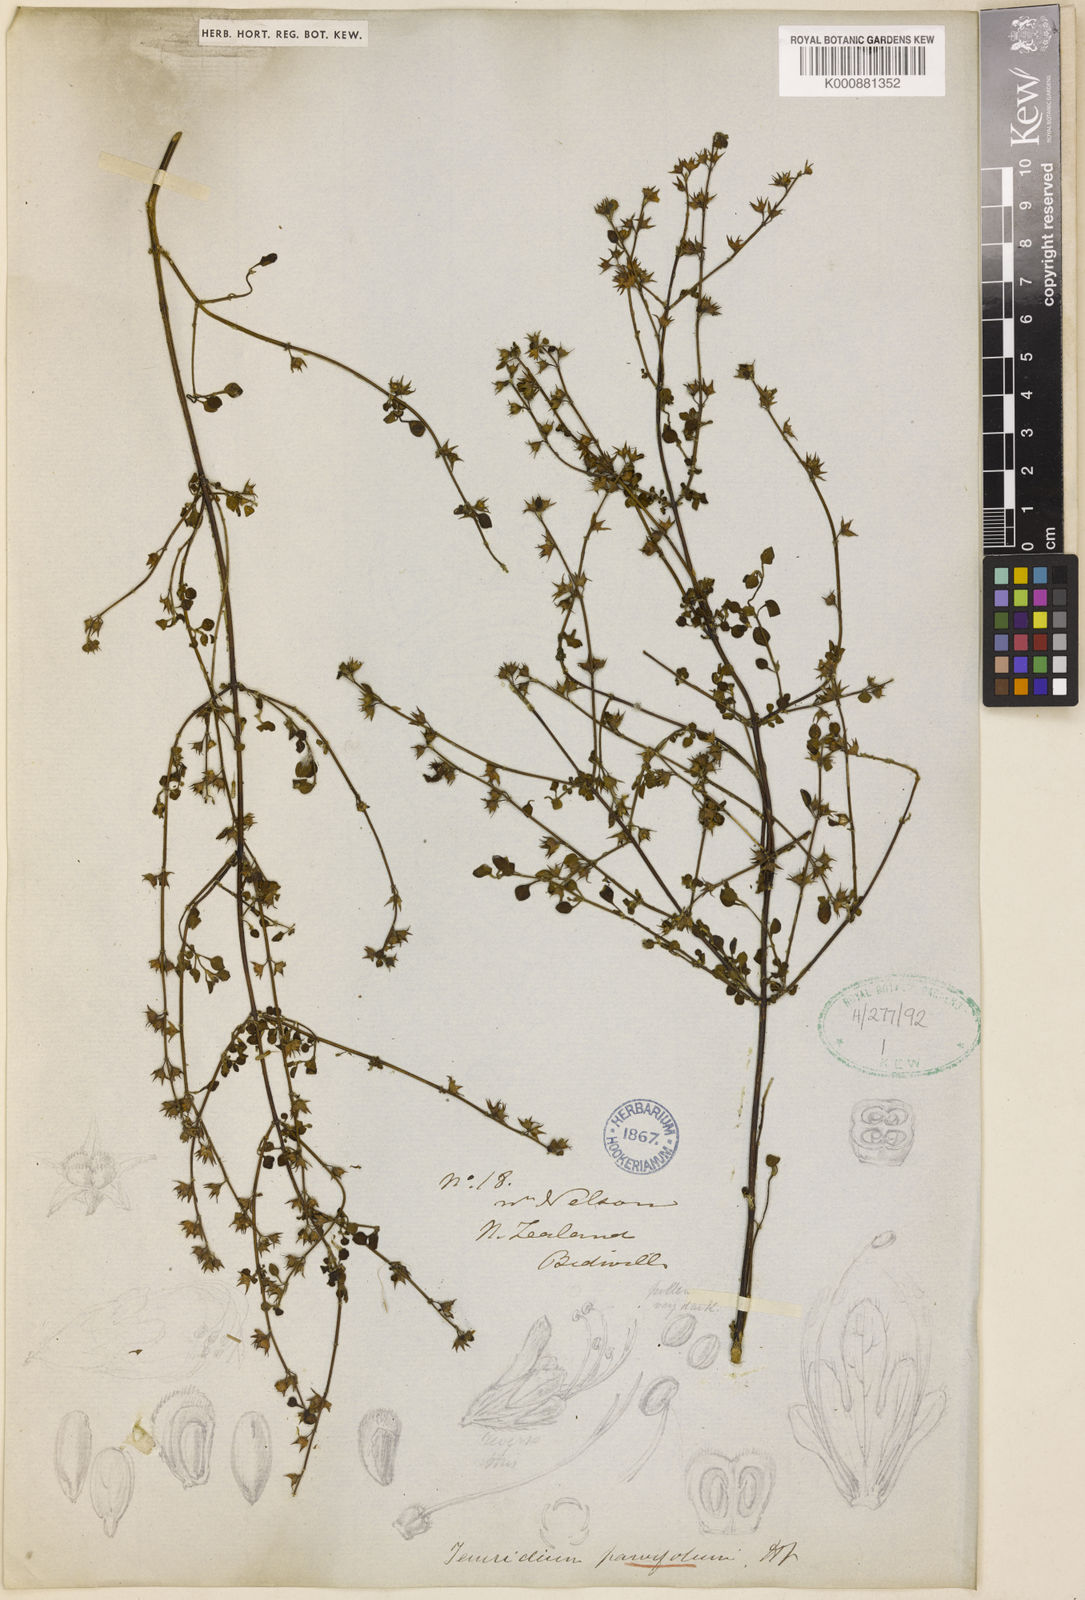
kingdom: Plantae
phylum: Tracheophyta
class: Magnoliopsida
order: Lamiales
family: Lamiaceae
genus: Teucrium
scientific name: Teucrium parvifolium
